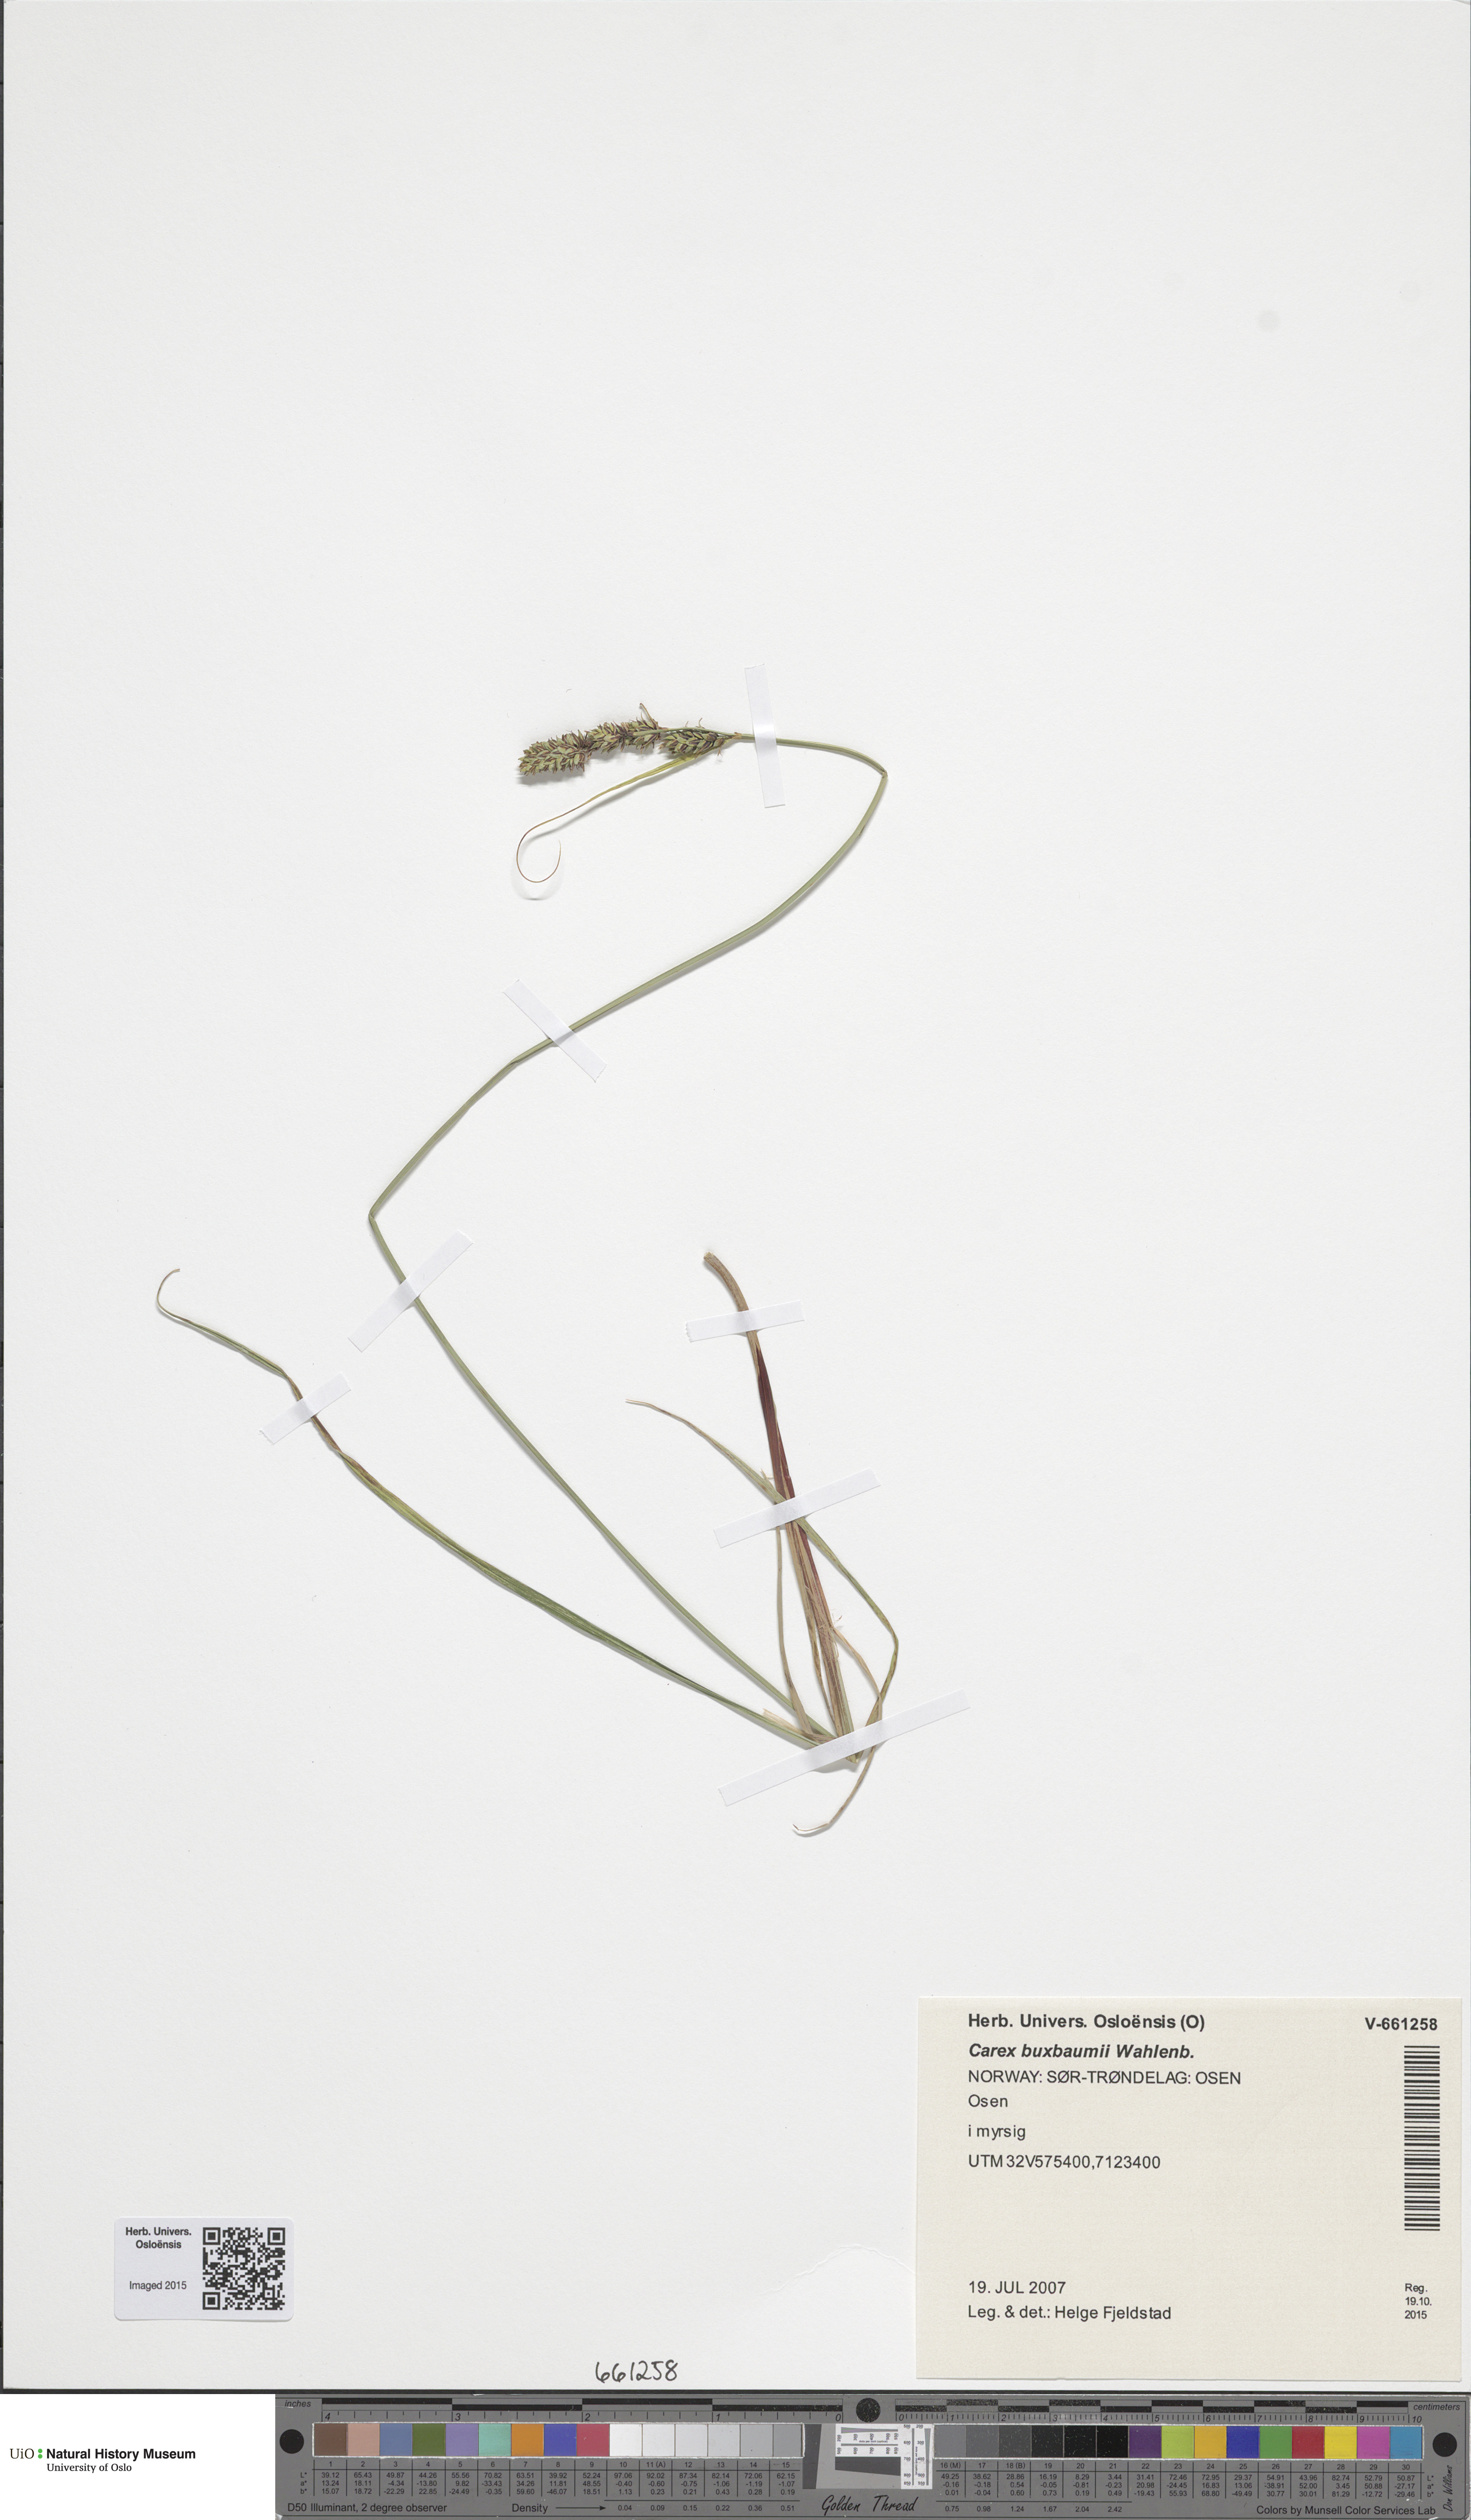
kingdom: Plantae
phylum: Tracheophyta
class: Liliopsida
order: Poales
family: Cyperaceae
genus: Carex
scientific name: Carex buxbaumii
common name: Club sedge
